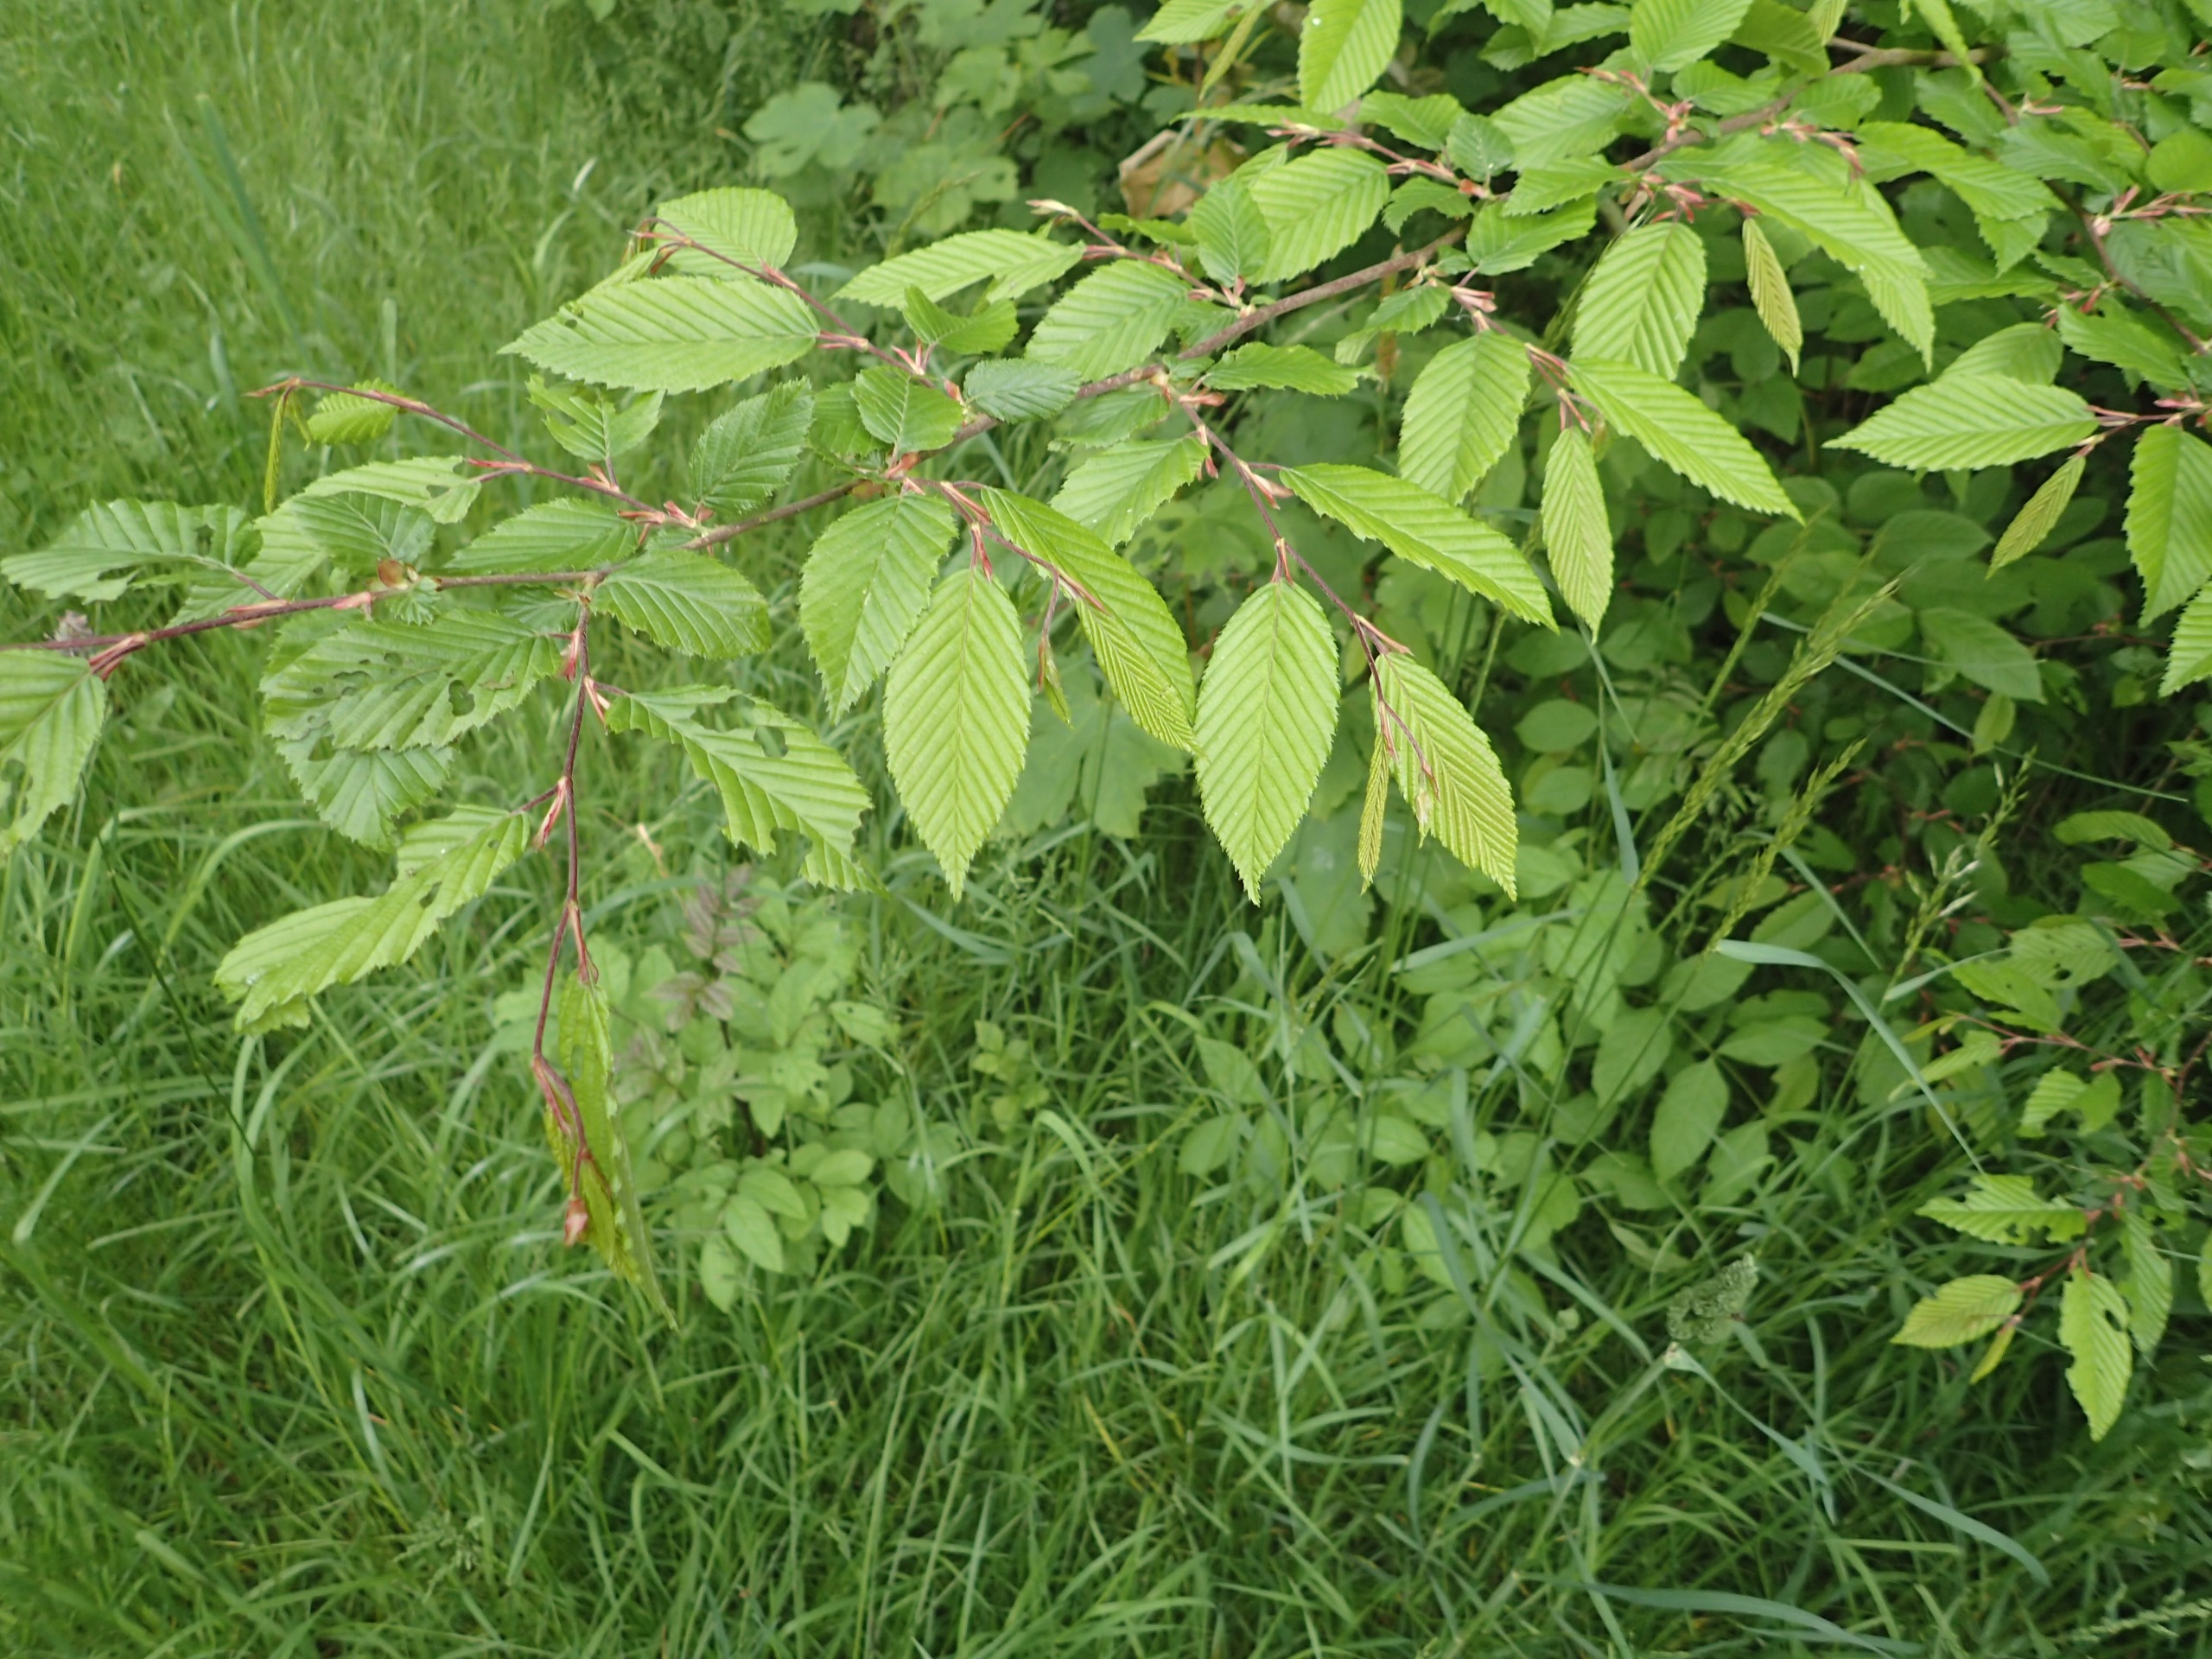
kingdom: Plantae
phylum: Tracheophyta
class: Magnoliopsida
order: Fagales
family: Betulaceae
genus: Carpinus
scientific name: Carpinus betulus
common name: Avnbøg
